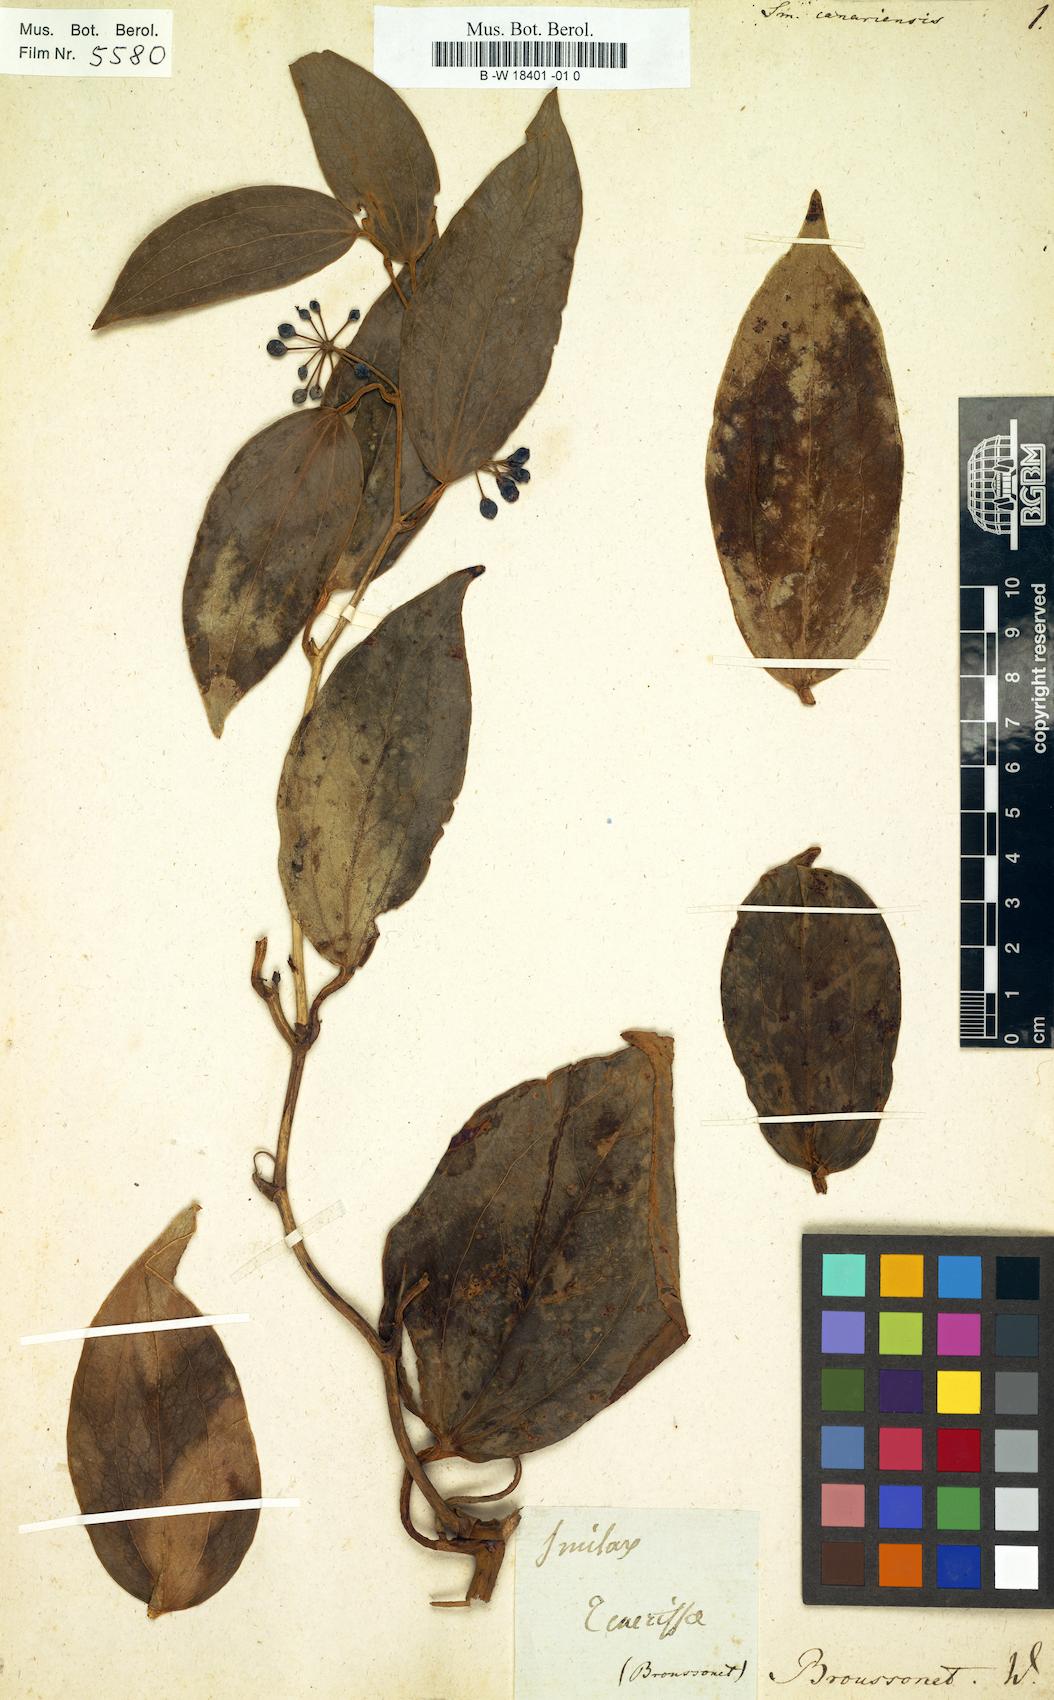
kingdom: Plantae
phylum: Tracheophyta
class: Liliopsida
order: Liliales
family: Smilacaceae
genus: Smilax
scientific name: Smilax canariensis
